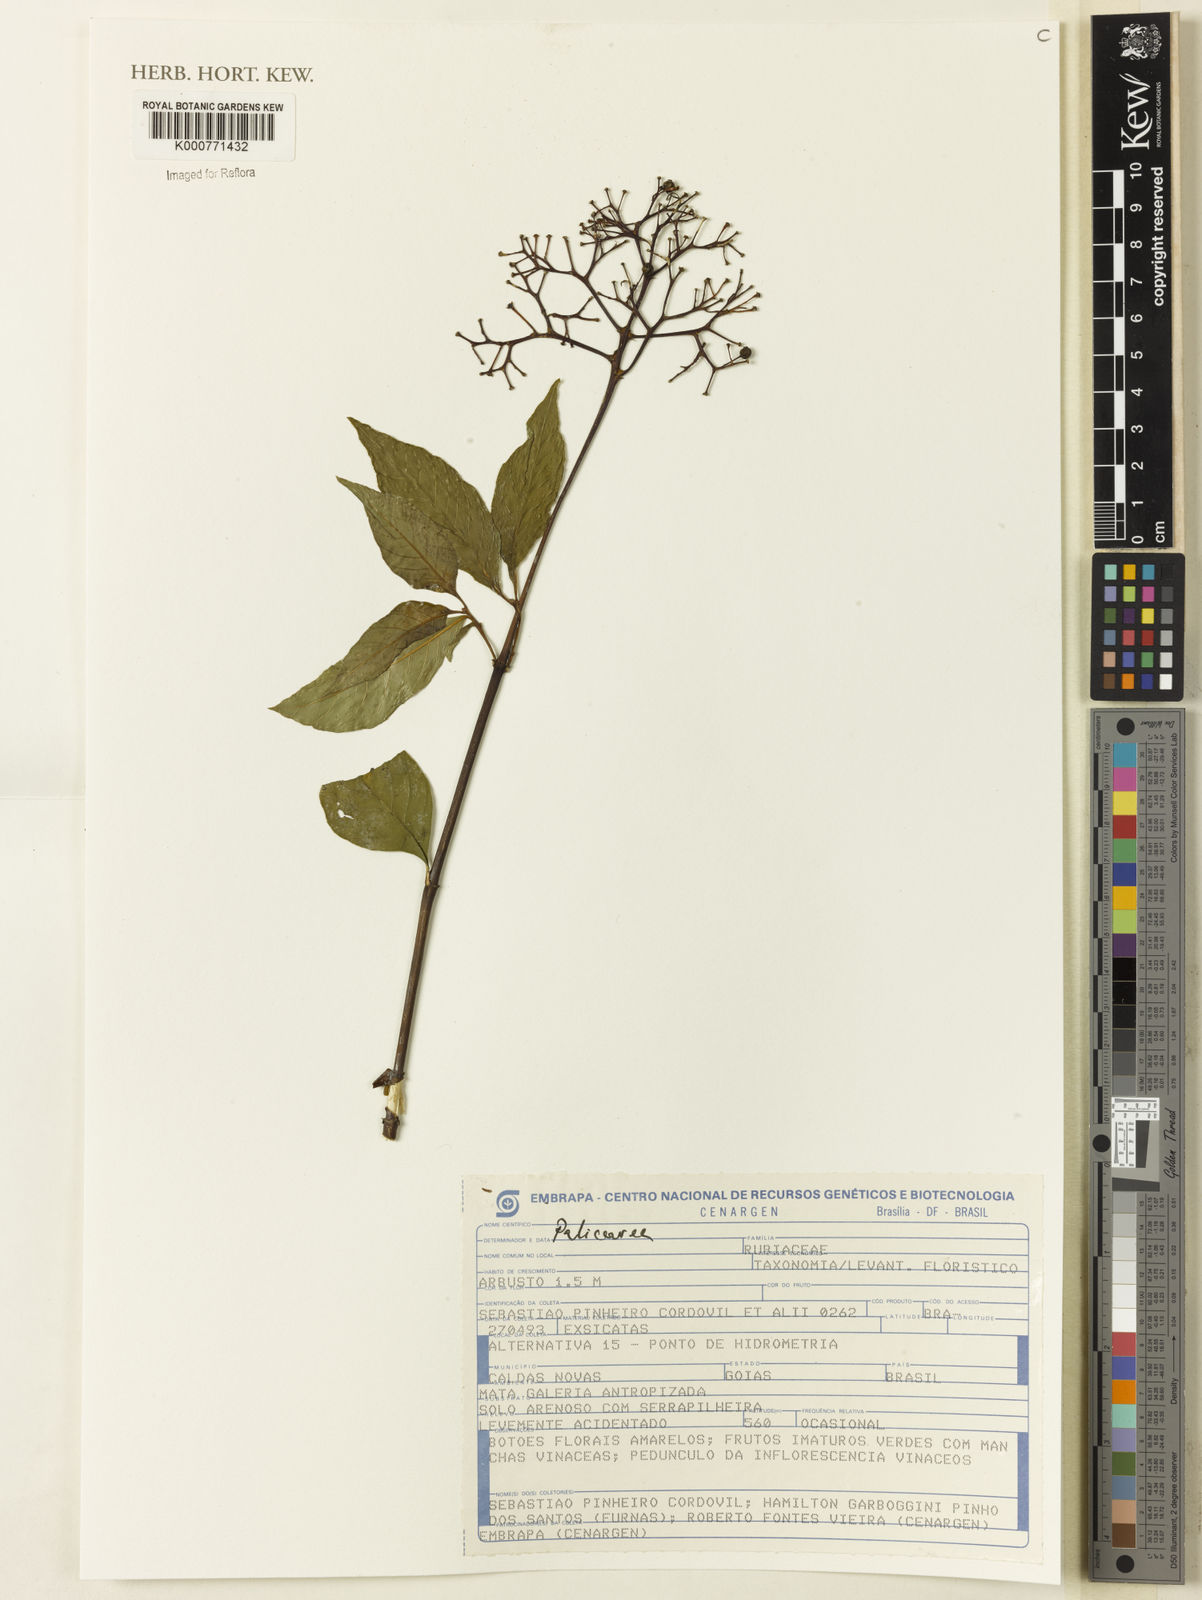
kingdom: Plantae
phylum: Tracheophyta
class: Magnoliopsida
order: Gentianales
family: Rubiaceae
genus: Palicourea
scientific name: Palicourea
